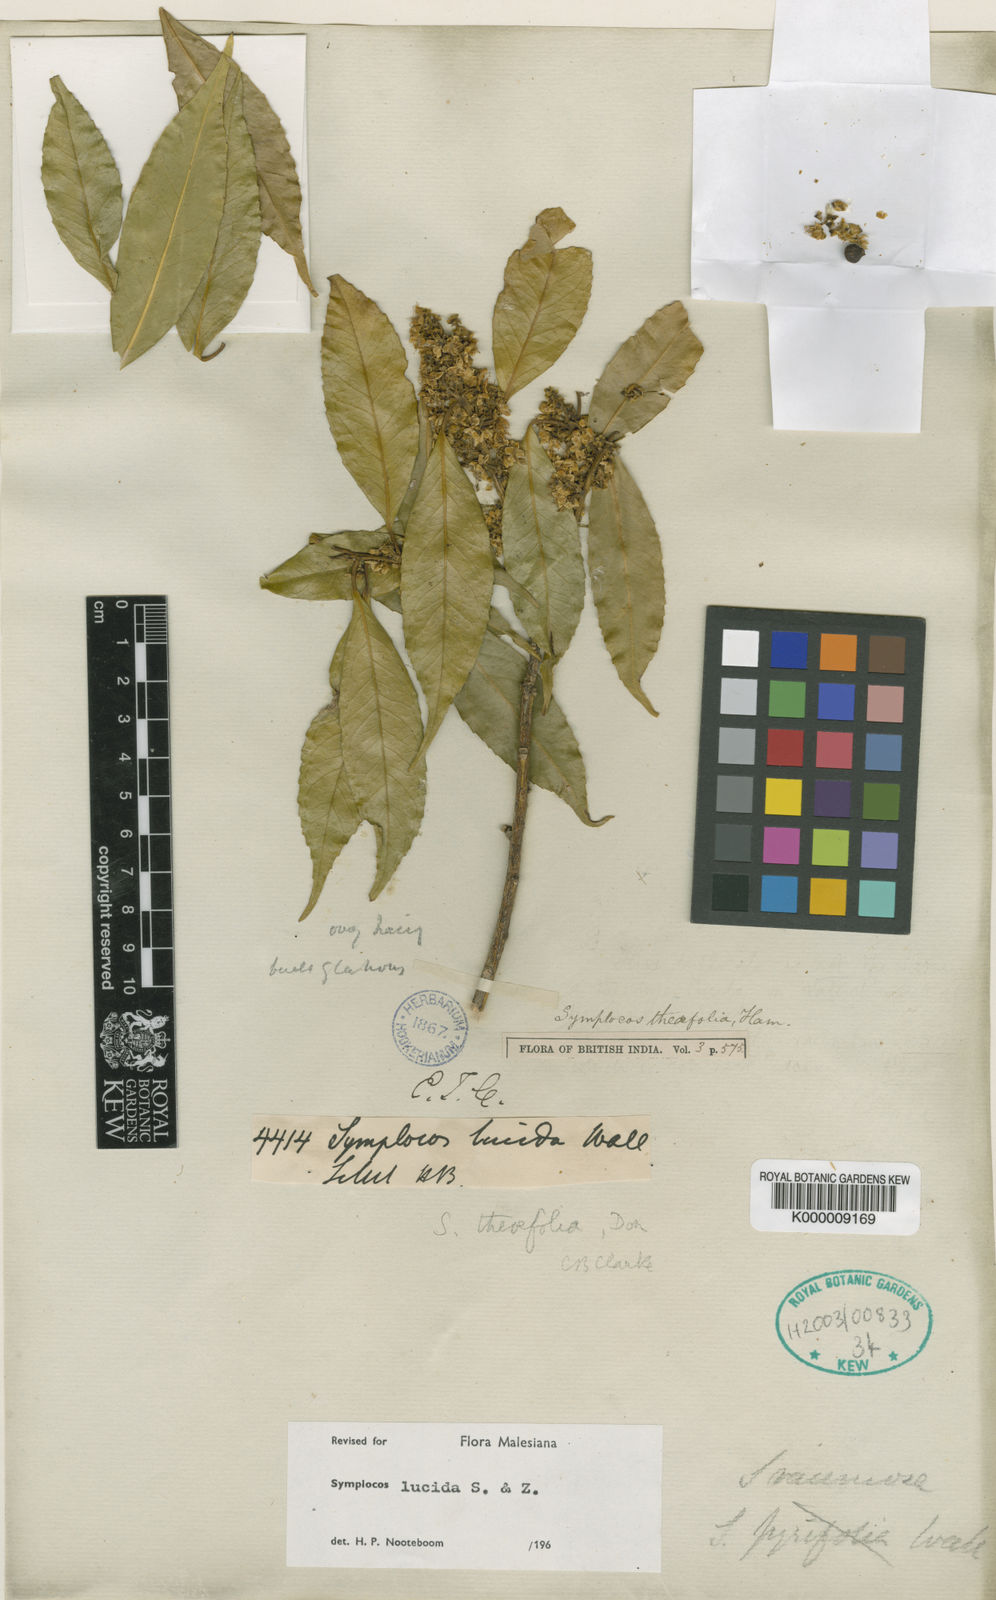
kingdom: Plantae
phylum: Tracheophyta
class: Magnoliopsida
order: Ericales
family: Symplocaceae
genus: Symplocos
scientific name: Symplocos
